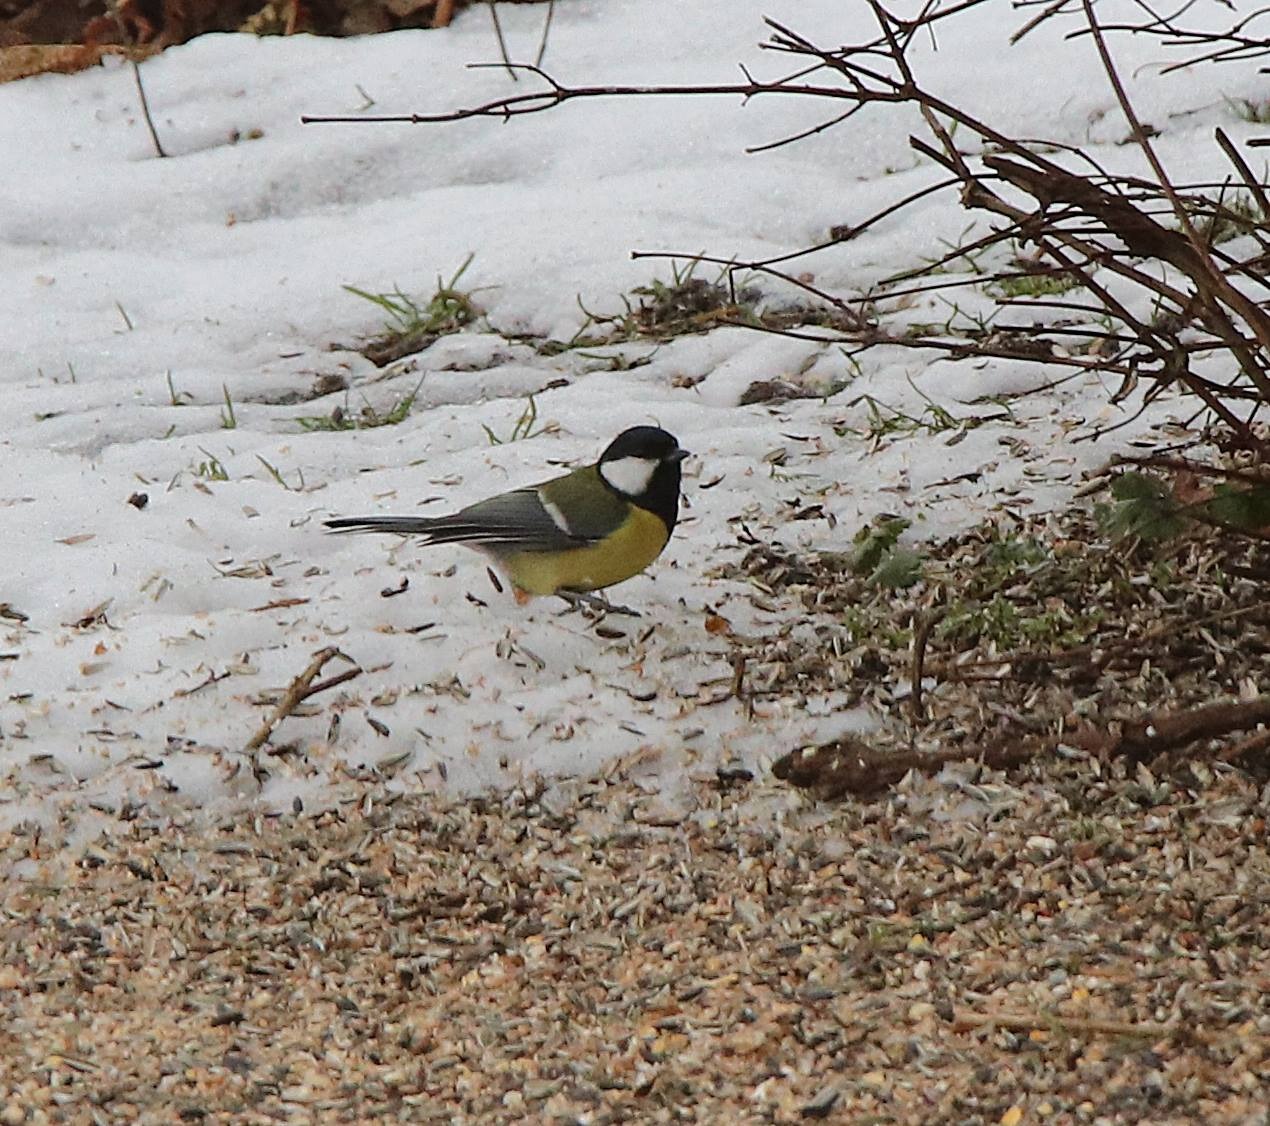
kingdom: Animalia
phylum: Chordata
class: Aves
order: Passeriformes
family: Paridae
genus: Parus
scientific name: Parus major
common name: Musvit
